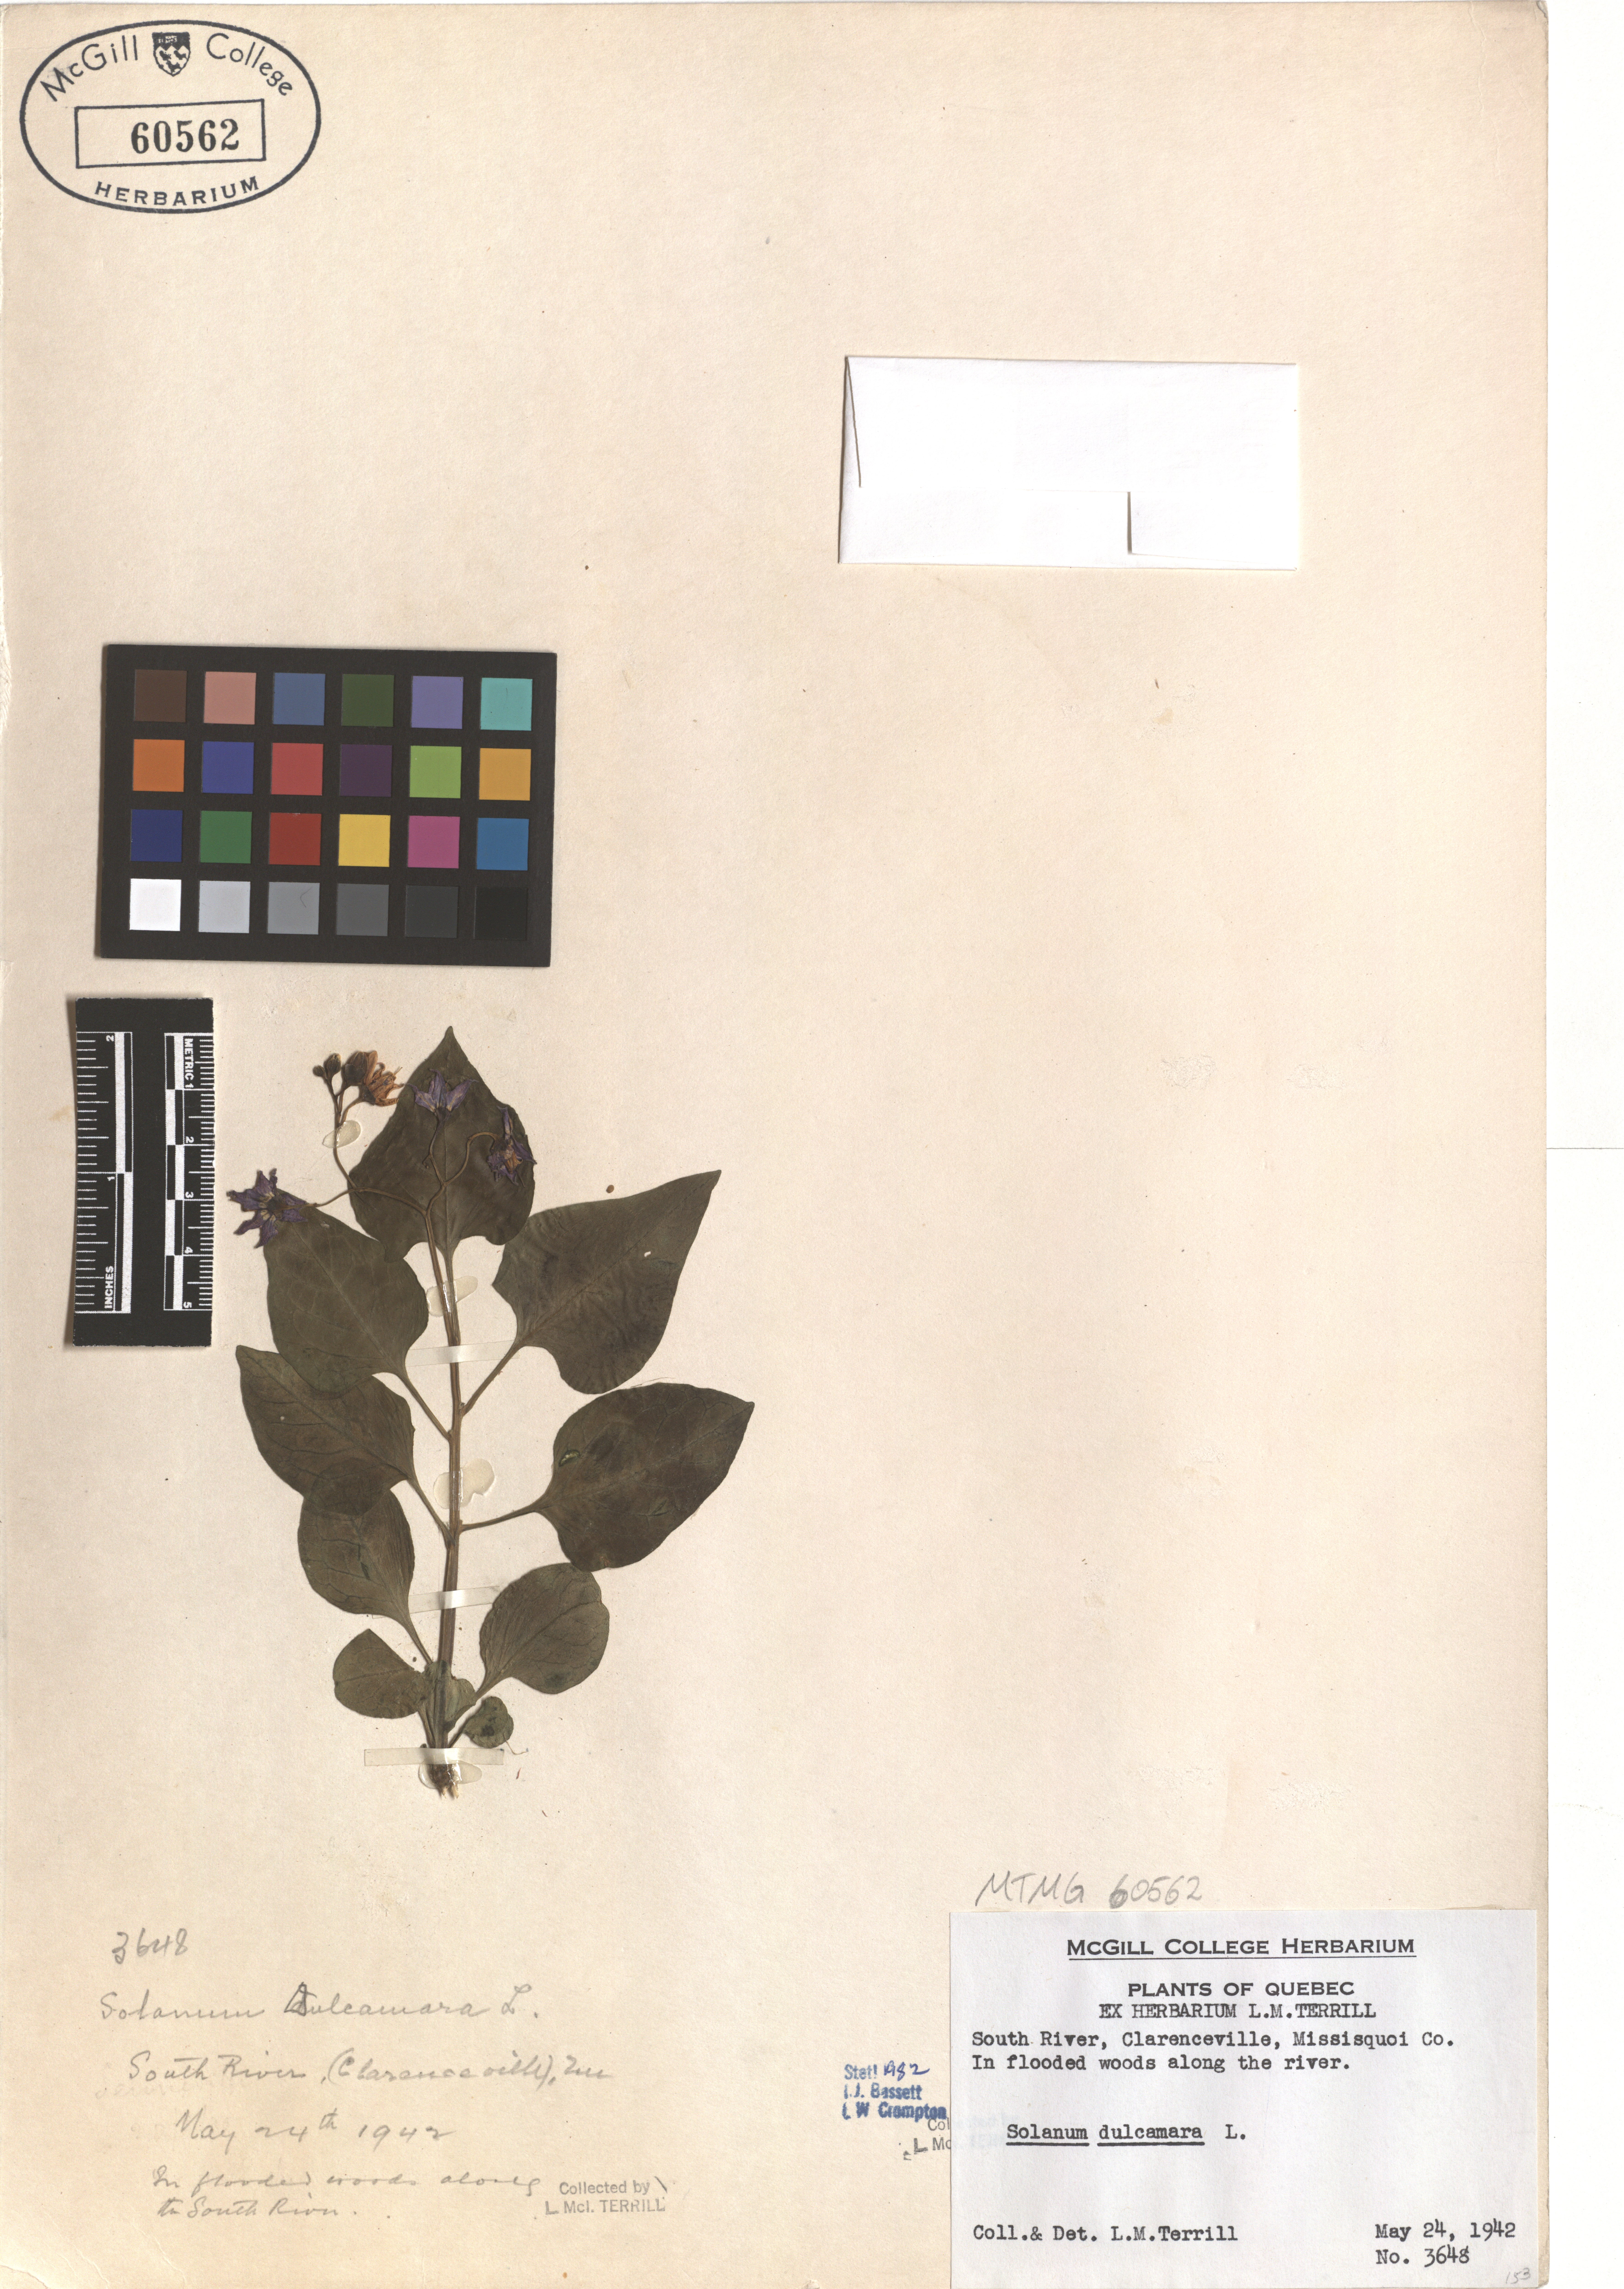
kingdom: Plantae
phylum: Tracheophyta
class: Magnoliopsida
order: Solanales
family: Solanaceae
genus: Solanum
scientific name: Solanum dulcamara
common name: Climbing nightshade
